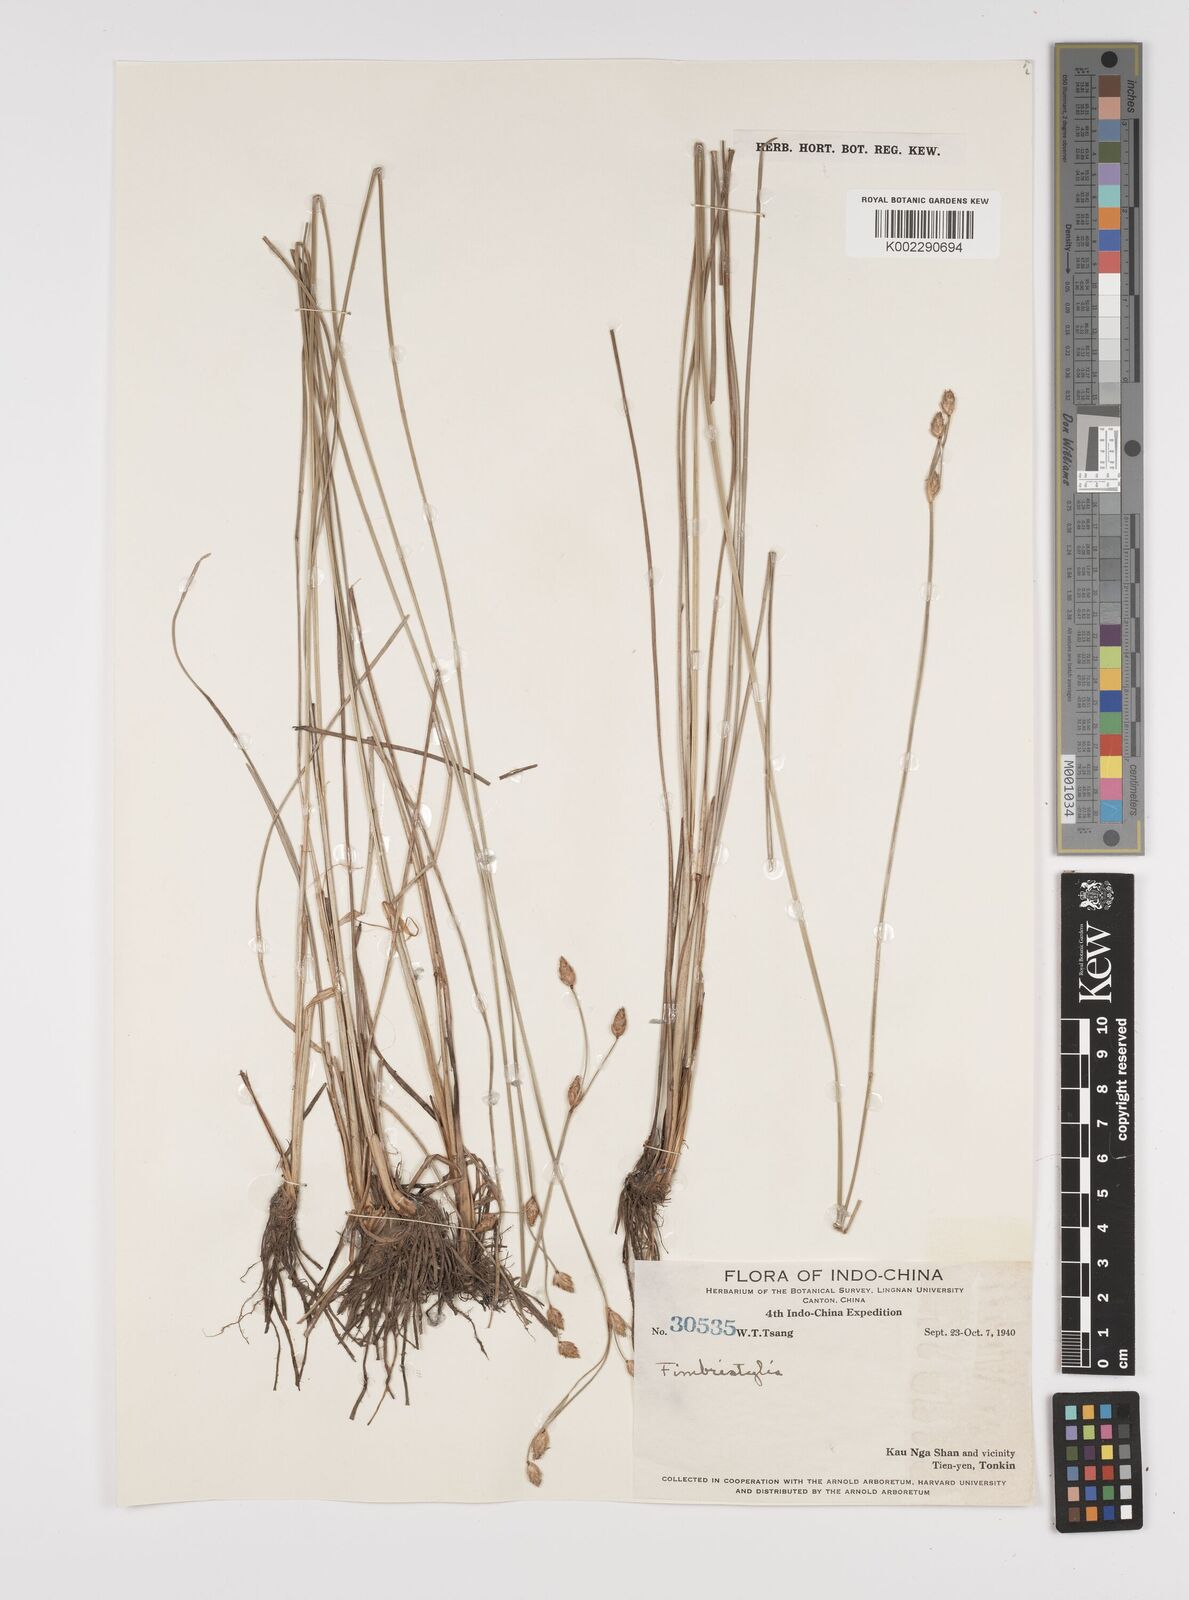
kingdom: Plantae
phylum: Tracheophyta
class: Liliopsida
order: Poales
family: Cyperaceae
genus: Fimbristylis
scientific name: Fimbristylis
